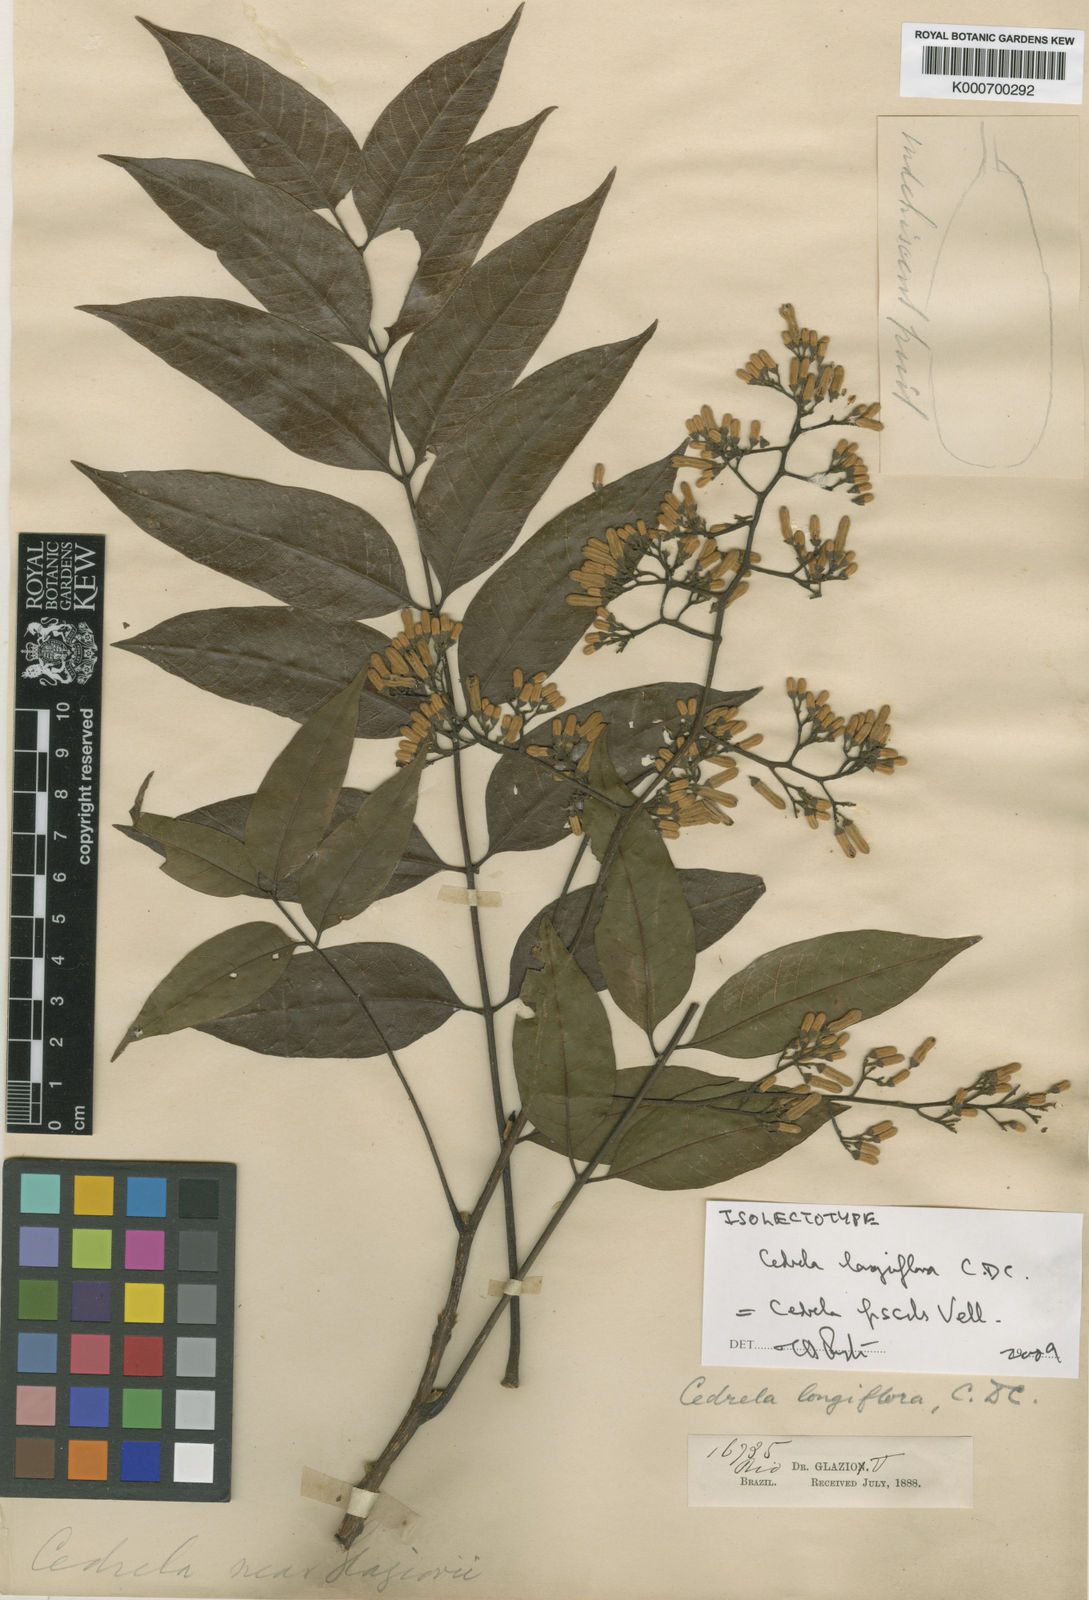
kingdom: Plantae
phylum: Tracheophyta
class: Magnoliopsida
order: Sapindales
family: Meliaceae
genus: Cedrela
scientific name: Cedrela fissilis
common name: Argentine cedar
